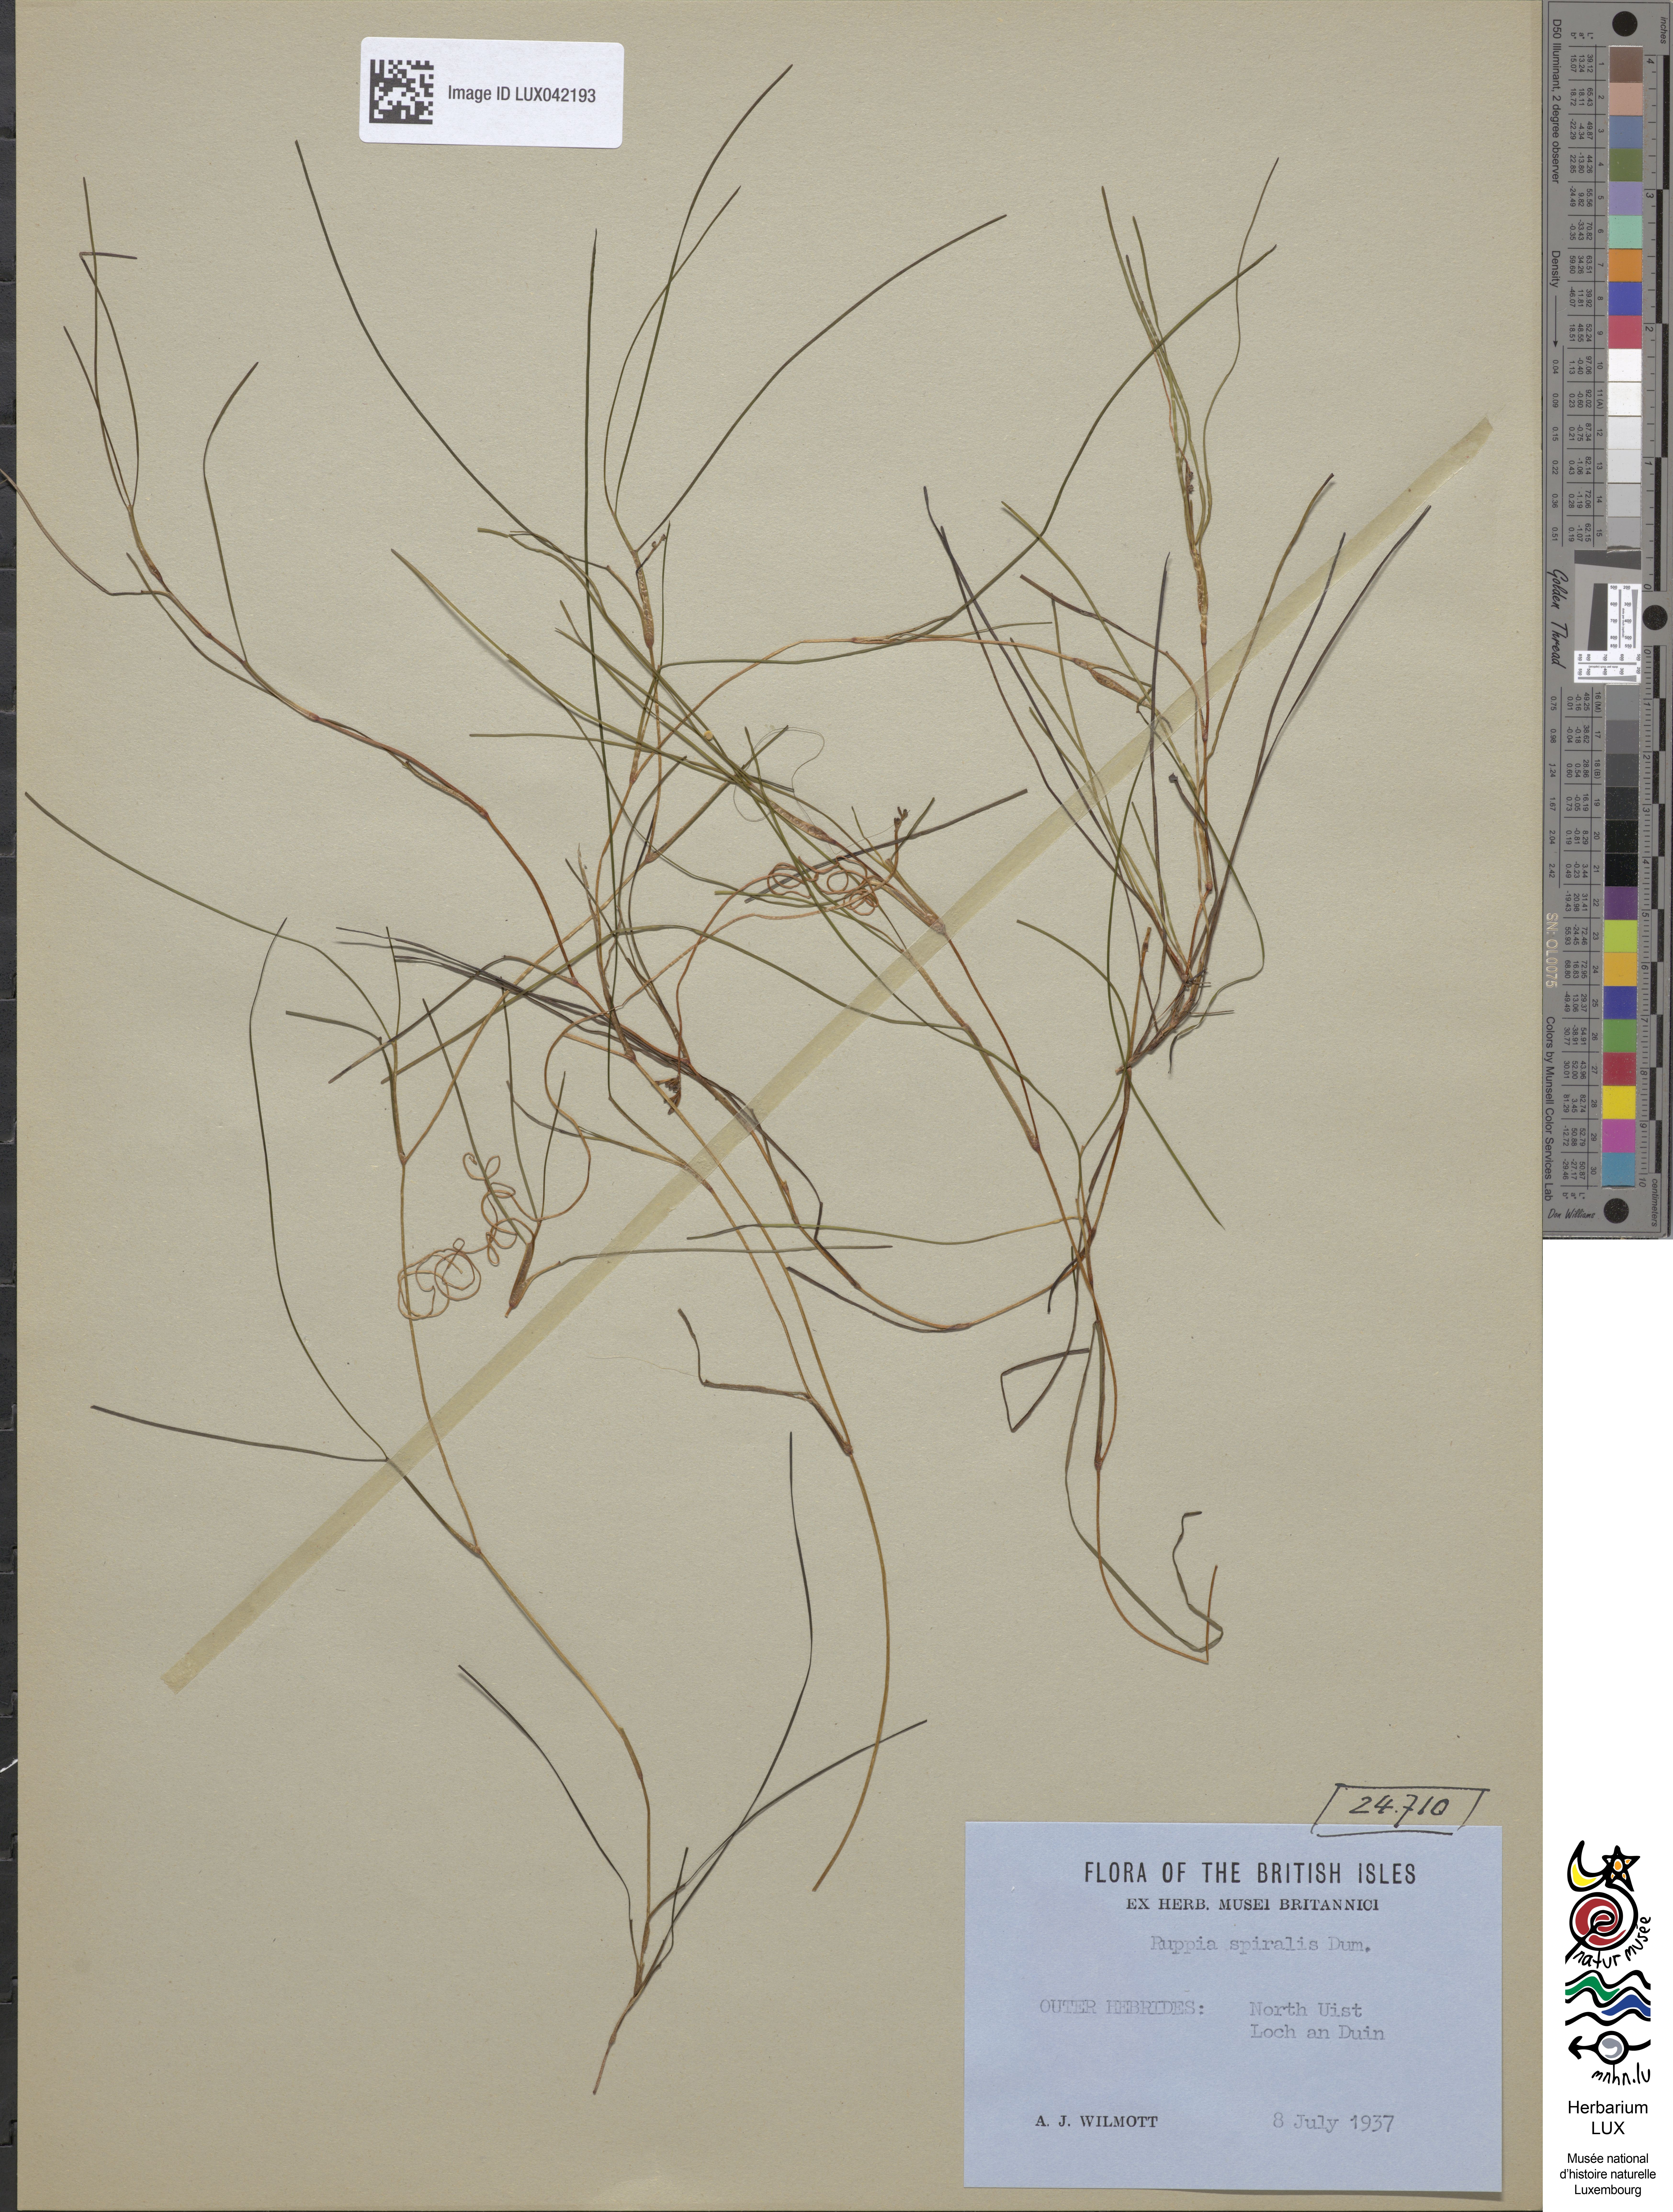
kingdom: Plantae
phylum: Tracheophyta
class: Liliopsida
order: Alismatales
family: Ruppiaceae
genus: Ruppia
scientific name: Ruppia cirrhosa
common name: Spiral tasselweed
